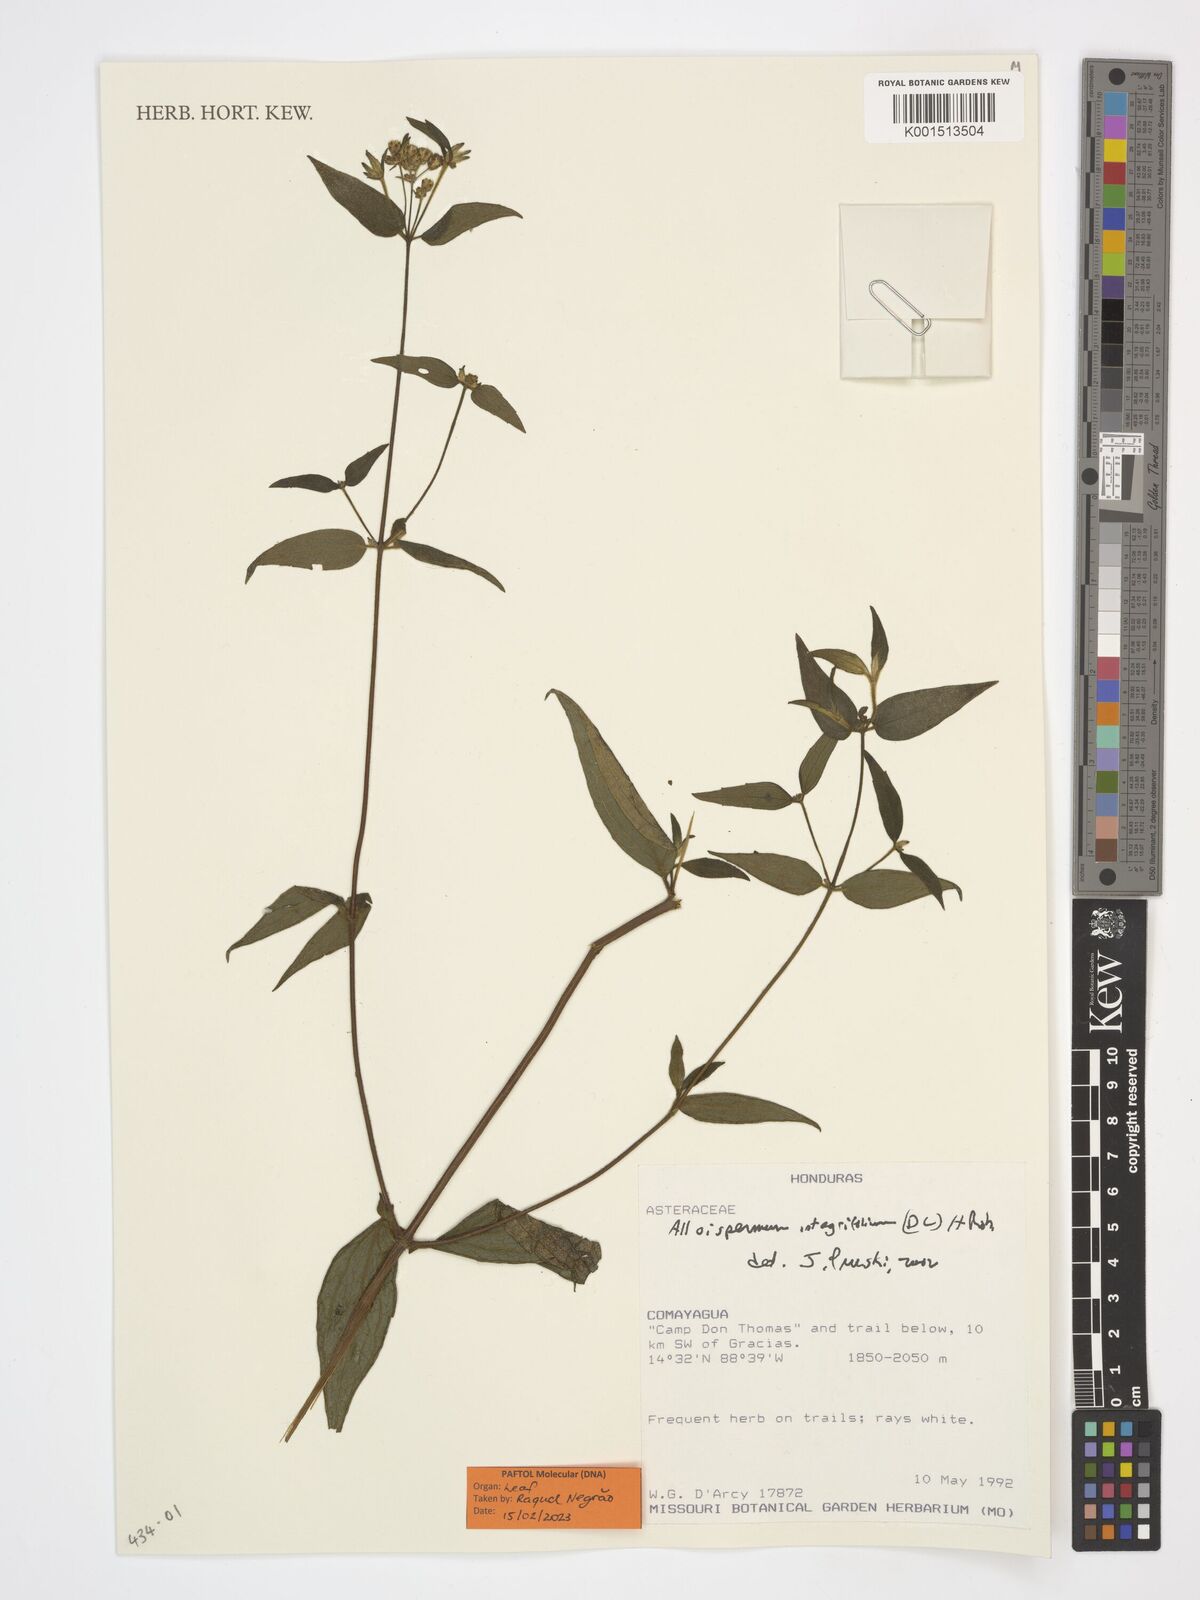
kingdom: Plantae
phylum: Tracheophyta
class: Magnoliopsida
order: Asterales
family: Asteraceae
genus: Alloispermum
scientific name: Alloispermum integrifolium
